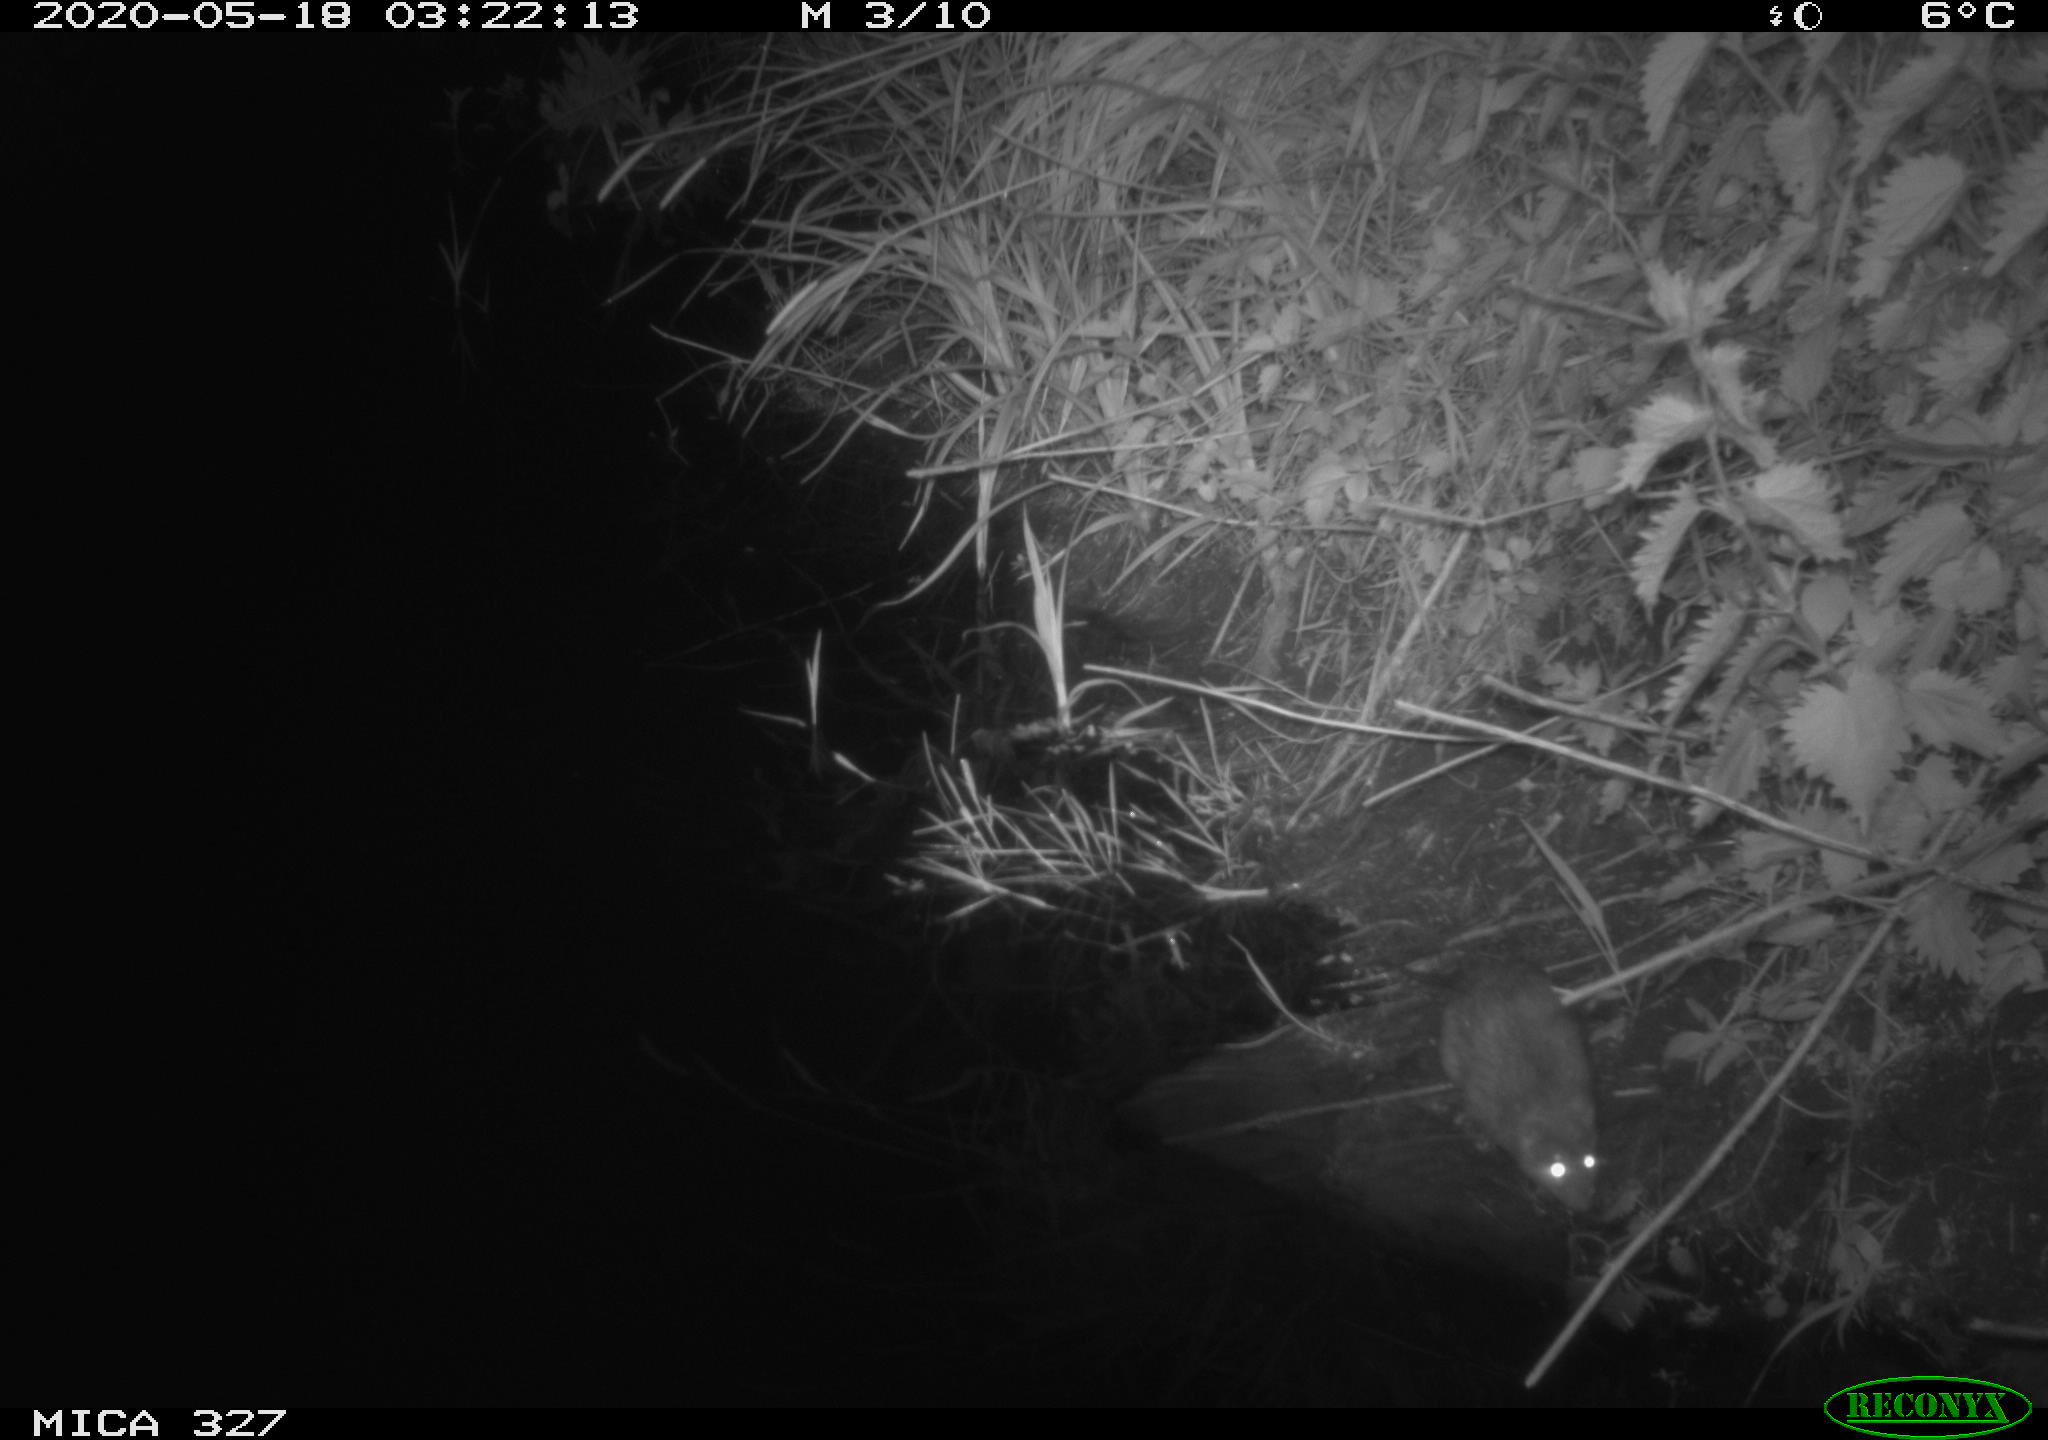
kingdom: Animalia
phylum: Chordata
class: Mammalia
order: Rodentia
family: Muridae
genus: Rattus
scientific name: Rattus norvegicus
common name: Brown rat
